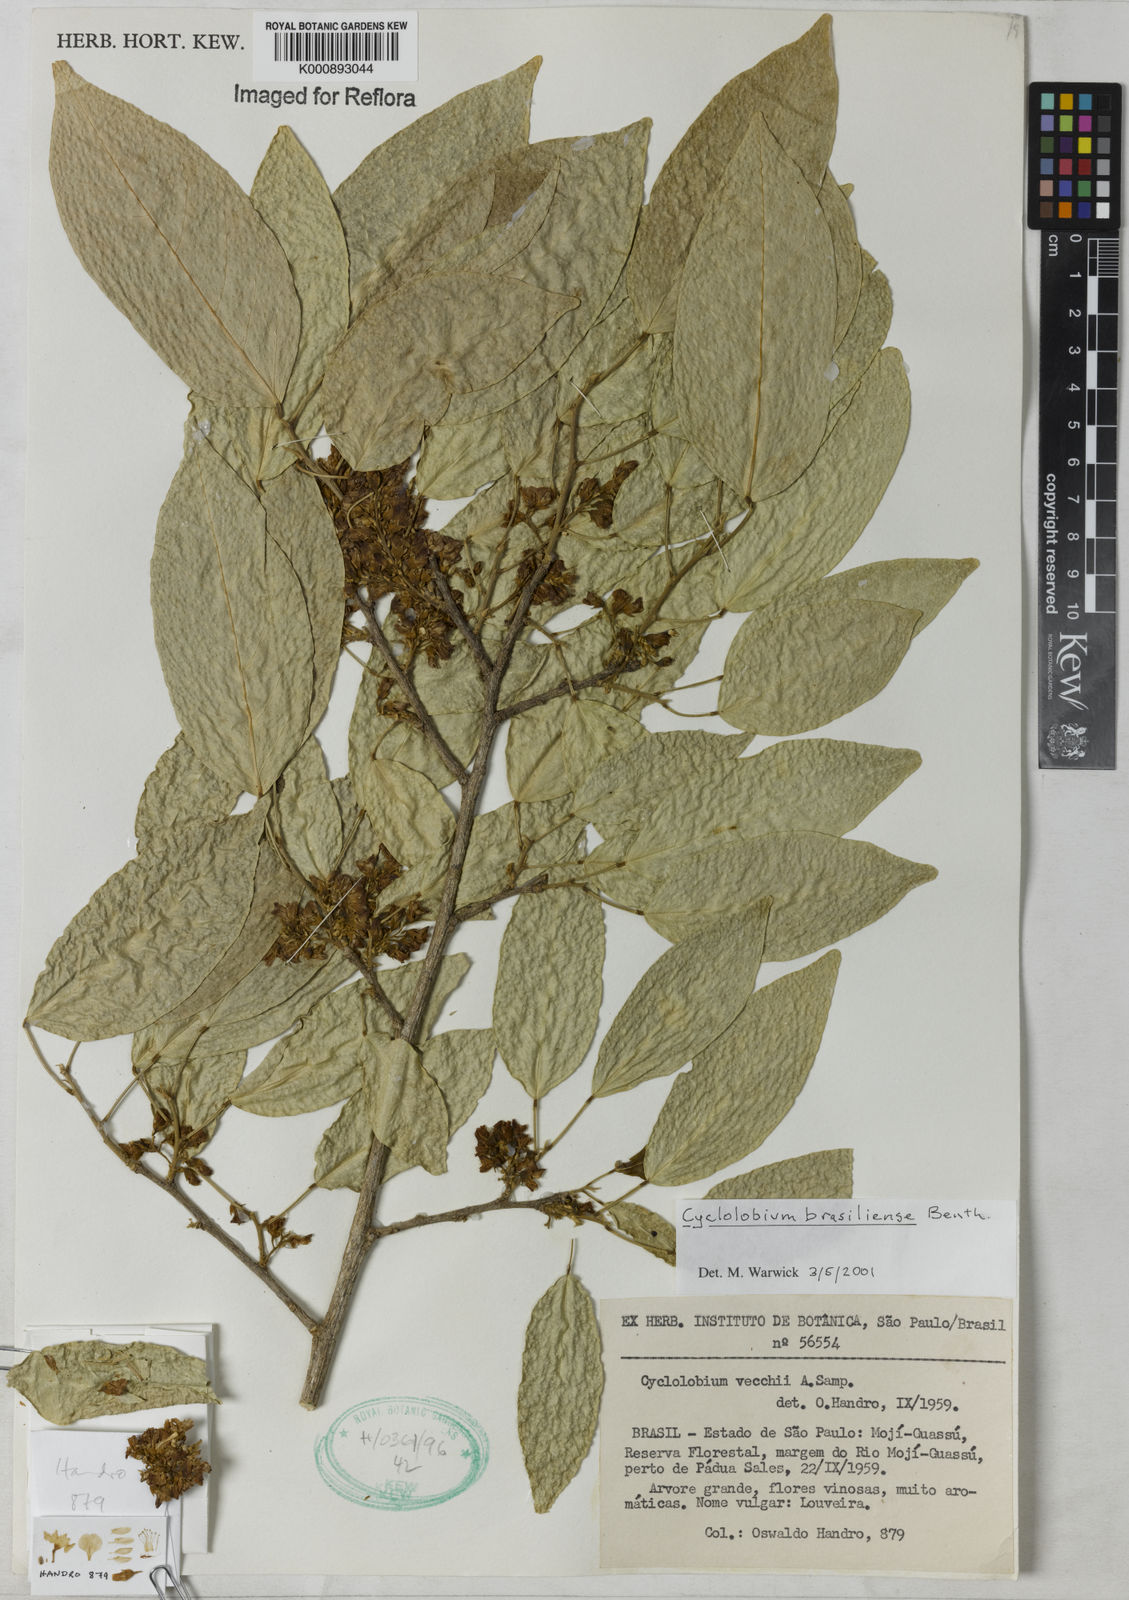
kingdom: Plantae
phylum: Tracheophyta
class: Magnoliopsida
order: Fabales
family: Fabaceae
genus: Cyclolobium
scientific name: Cyclolobium brasiliense
